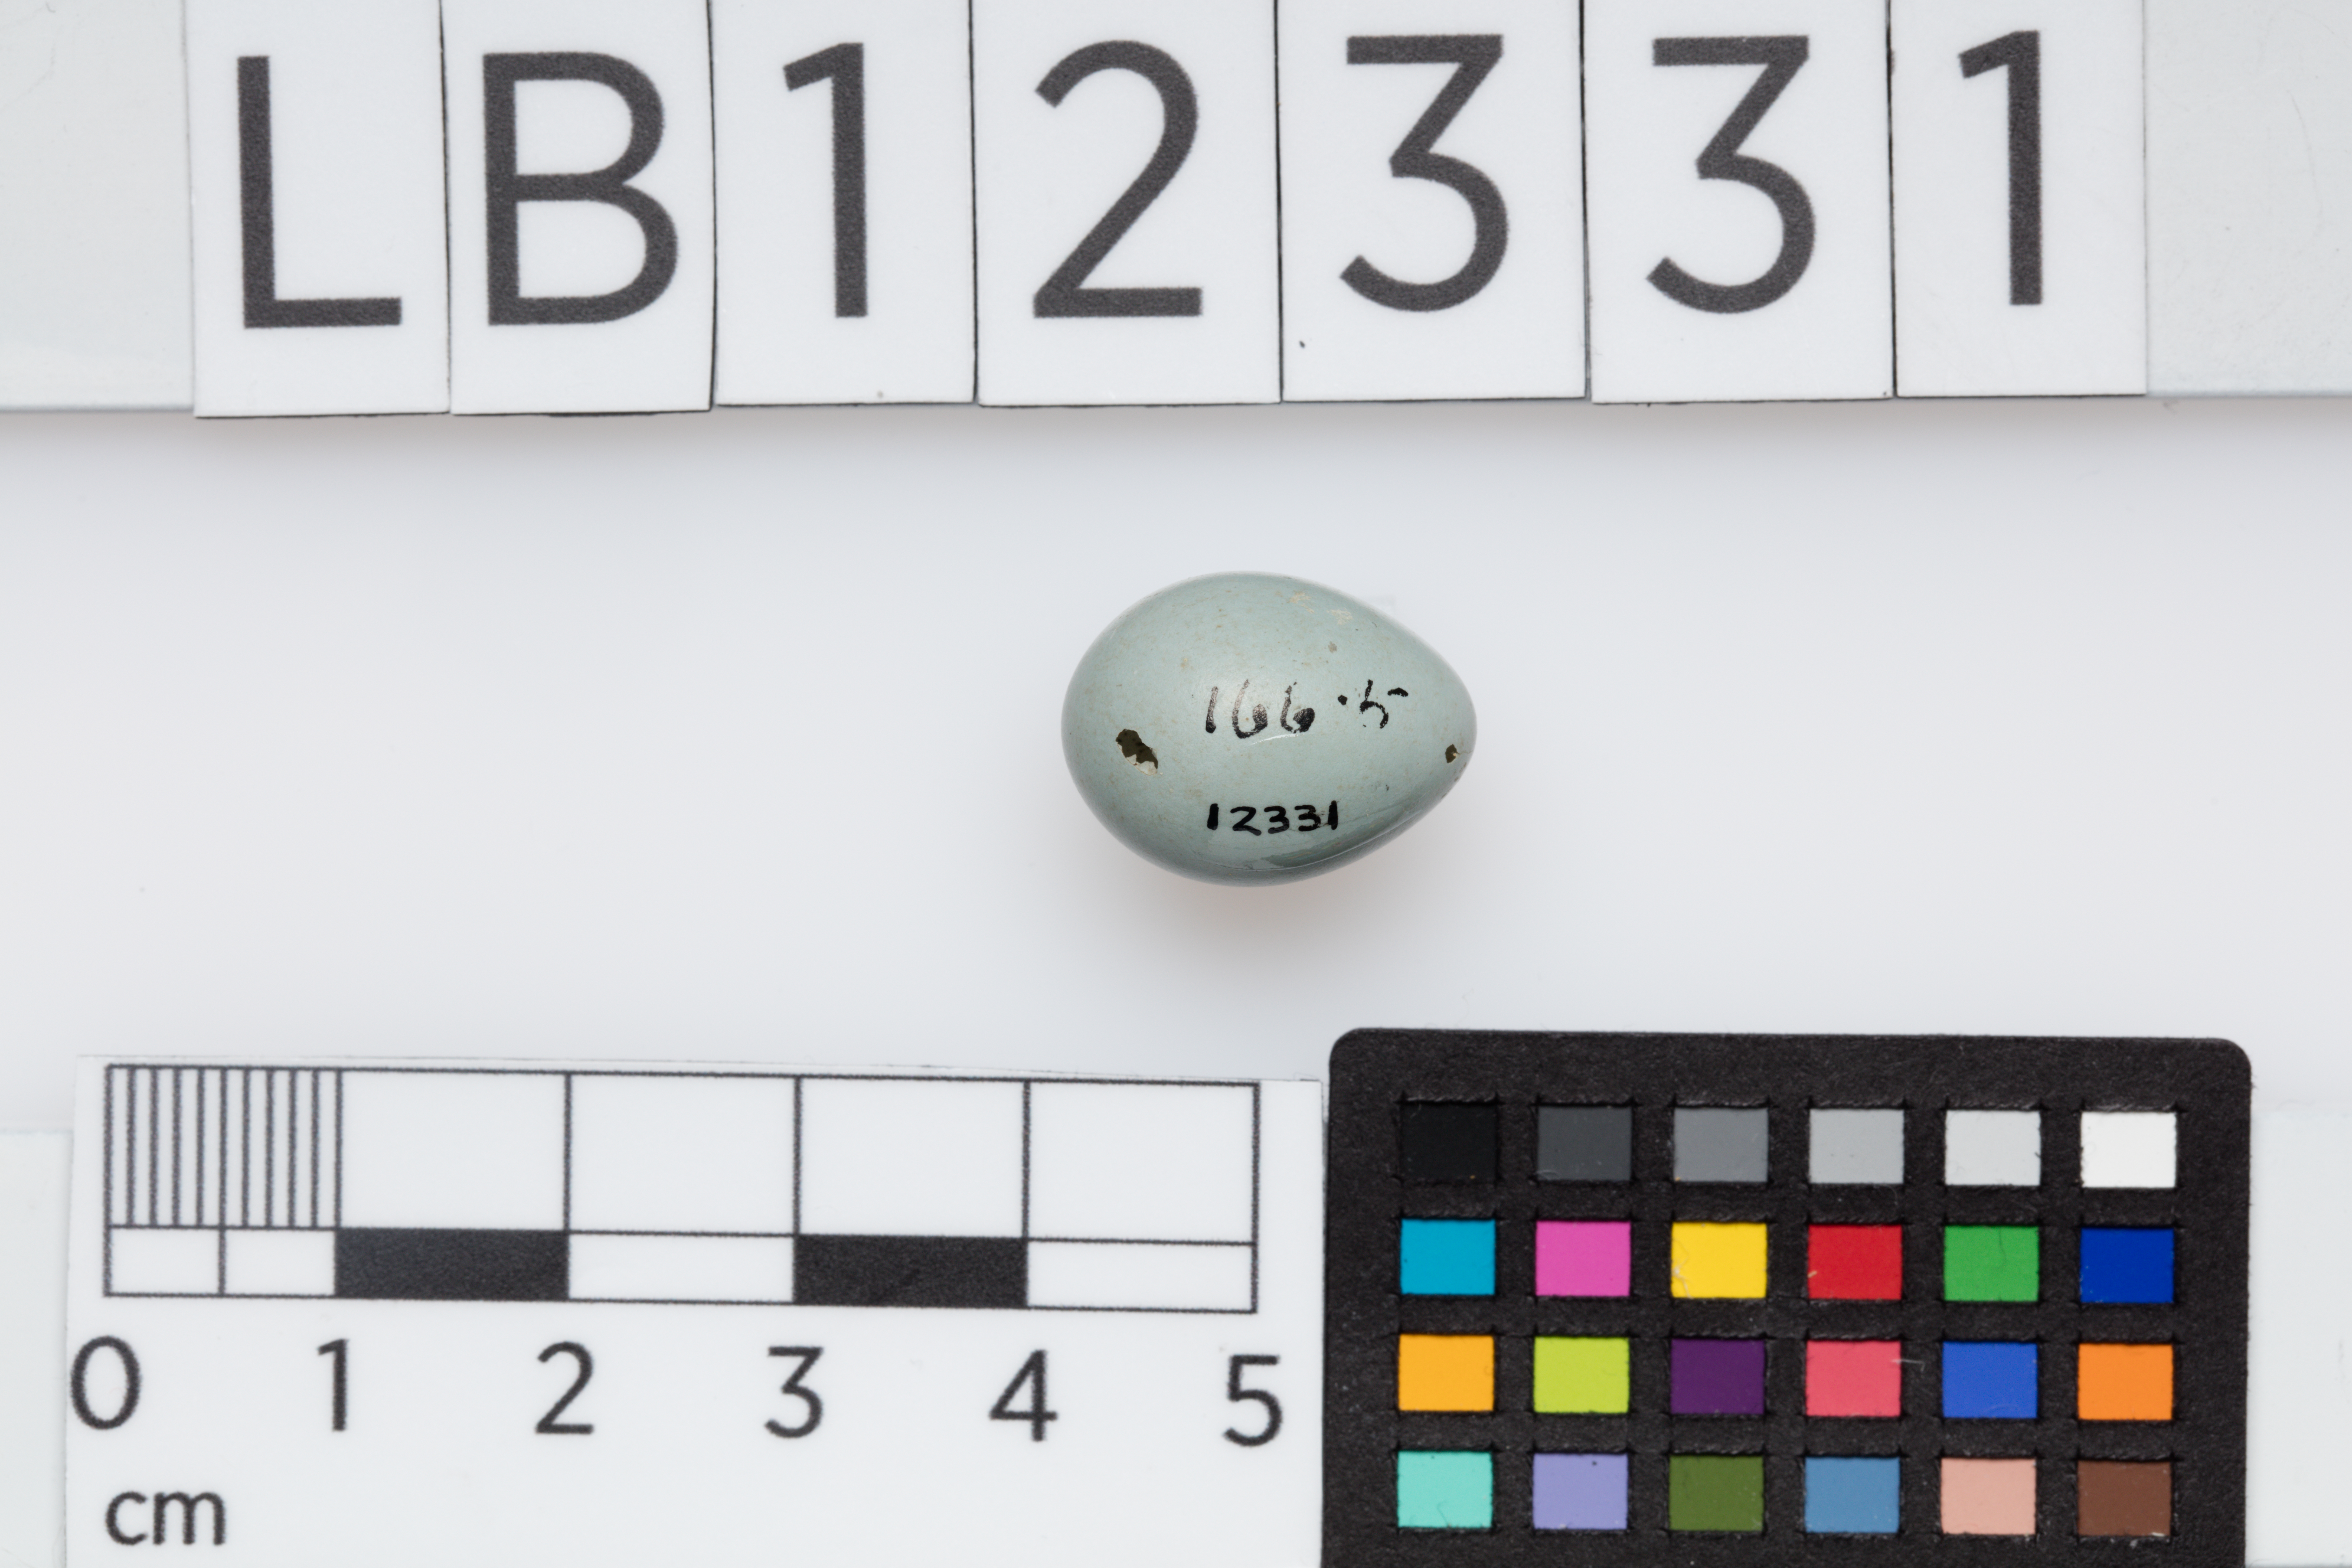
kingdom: Animalia
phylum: Chordata
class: Aves
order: Passeriformes
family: Muscicapidae
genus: Phoenicurus
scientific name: Phoenicurus phoenicurus
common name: Common redstart
